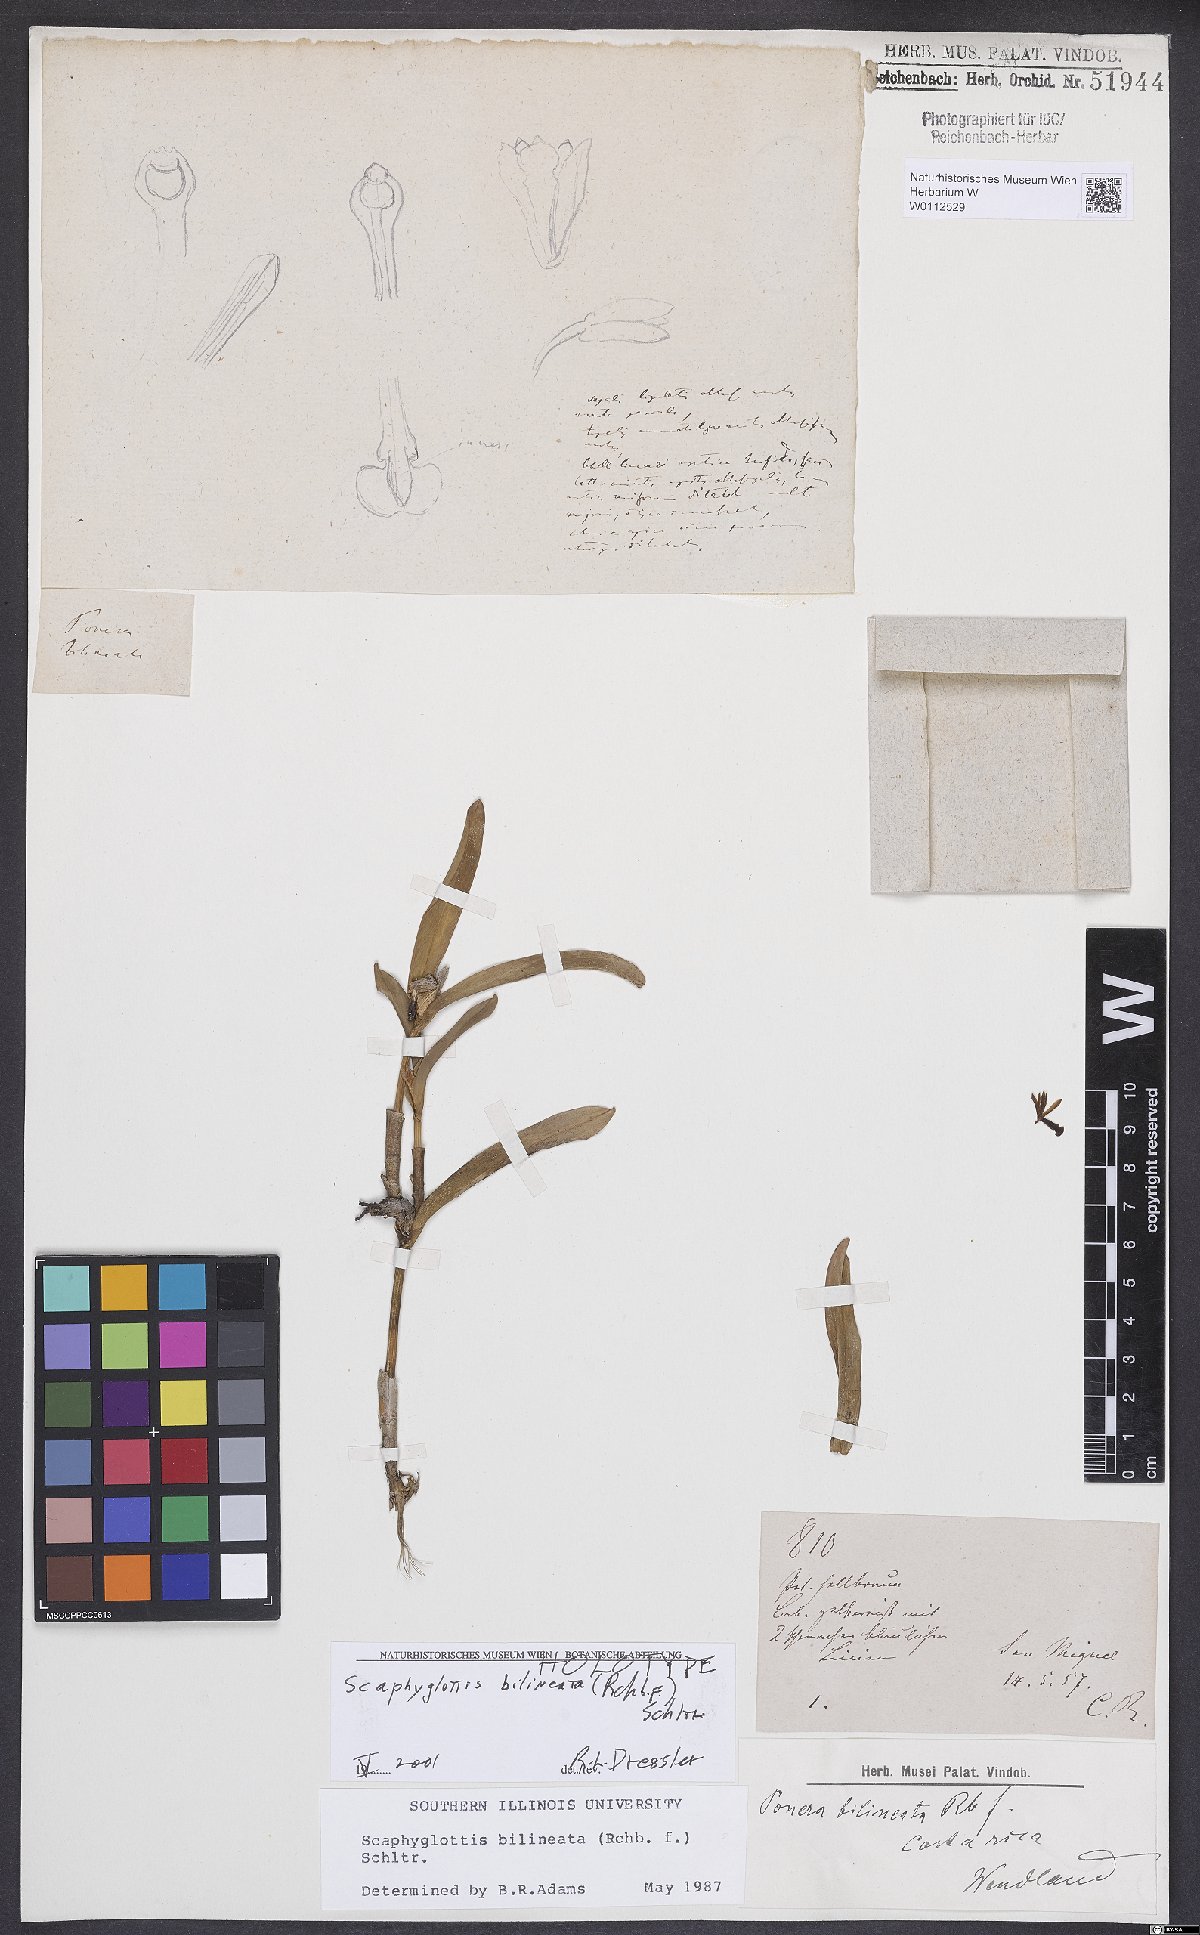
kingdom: Plantae
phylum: Tracheophyta
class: Liliopsida
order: Asparagales
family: Orchidaceae
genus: Scaphyglottis
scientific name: Scaphyglottis bilineata
